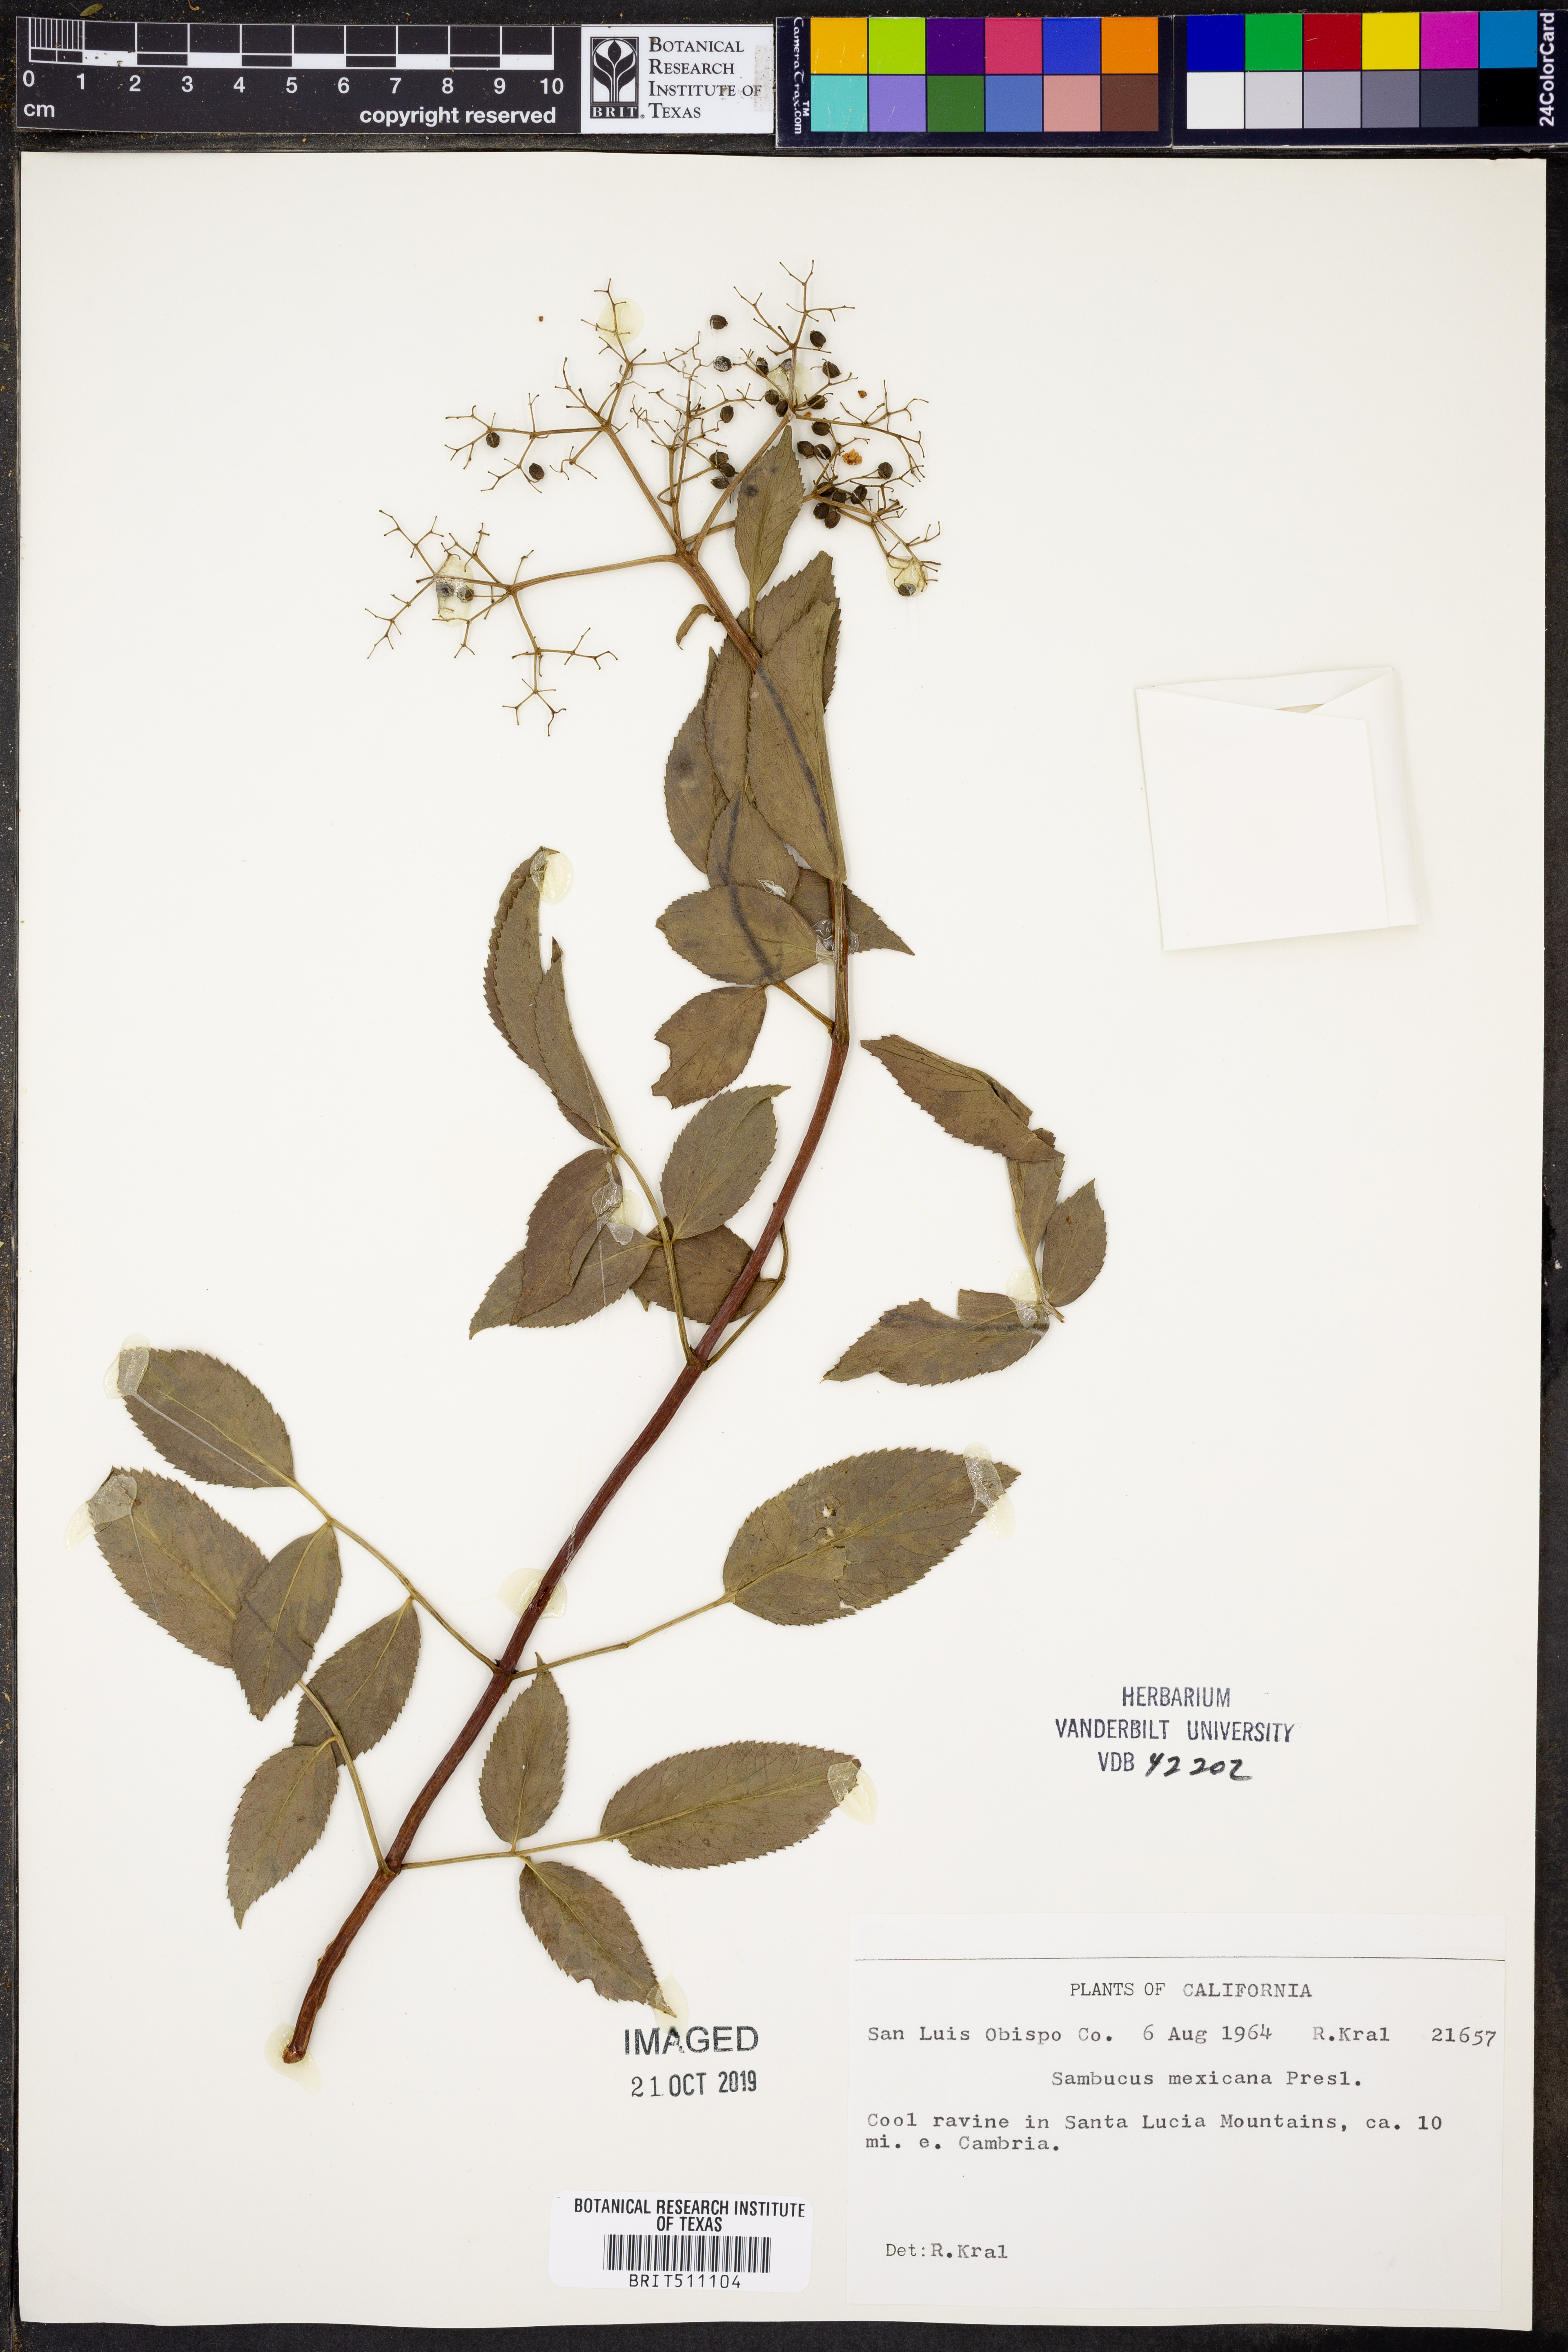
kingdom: Plantae
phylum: Tracheophyta
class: Magnoliopsida
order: Dipsacales
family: Viburnaceae
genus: Sambucus
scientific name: Sambucus mexicana
